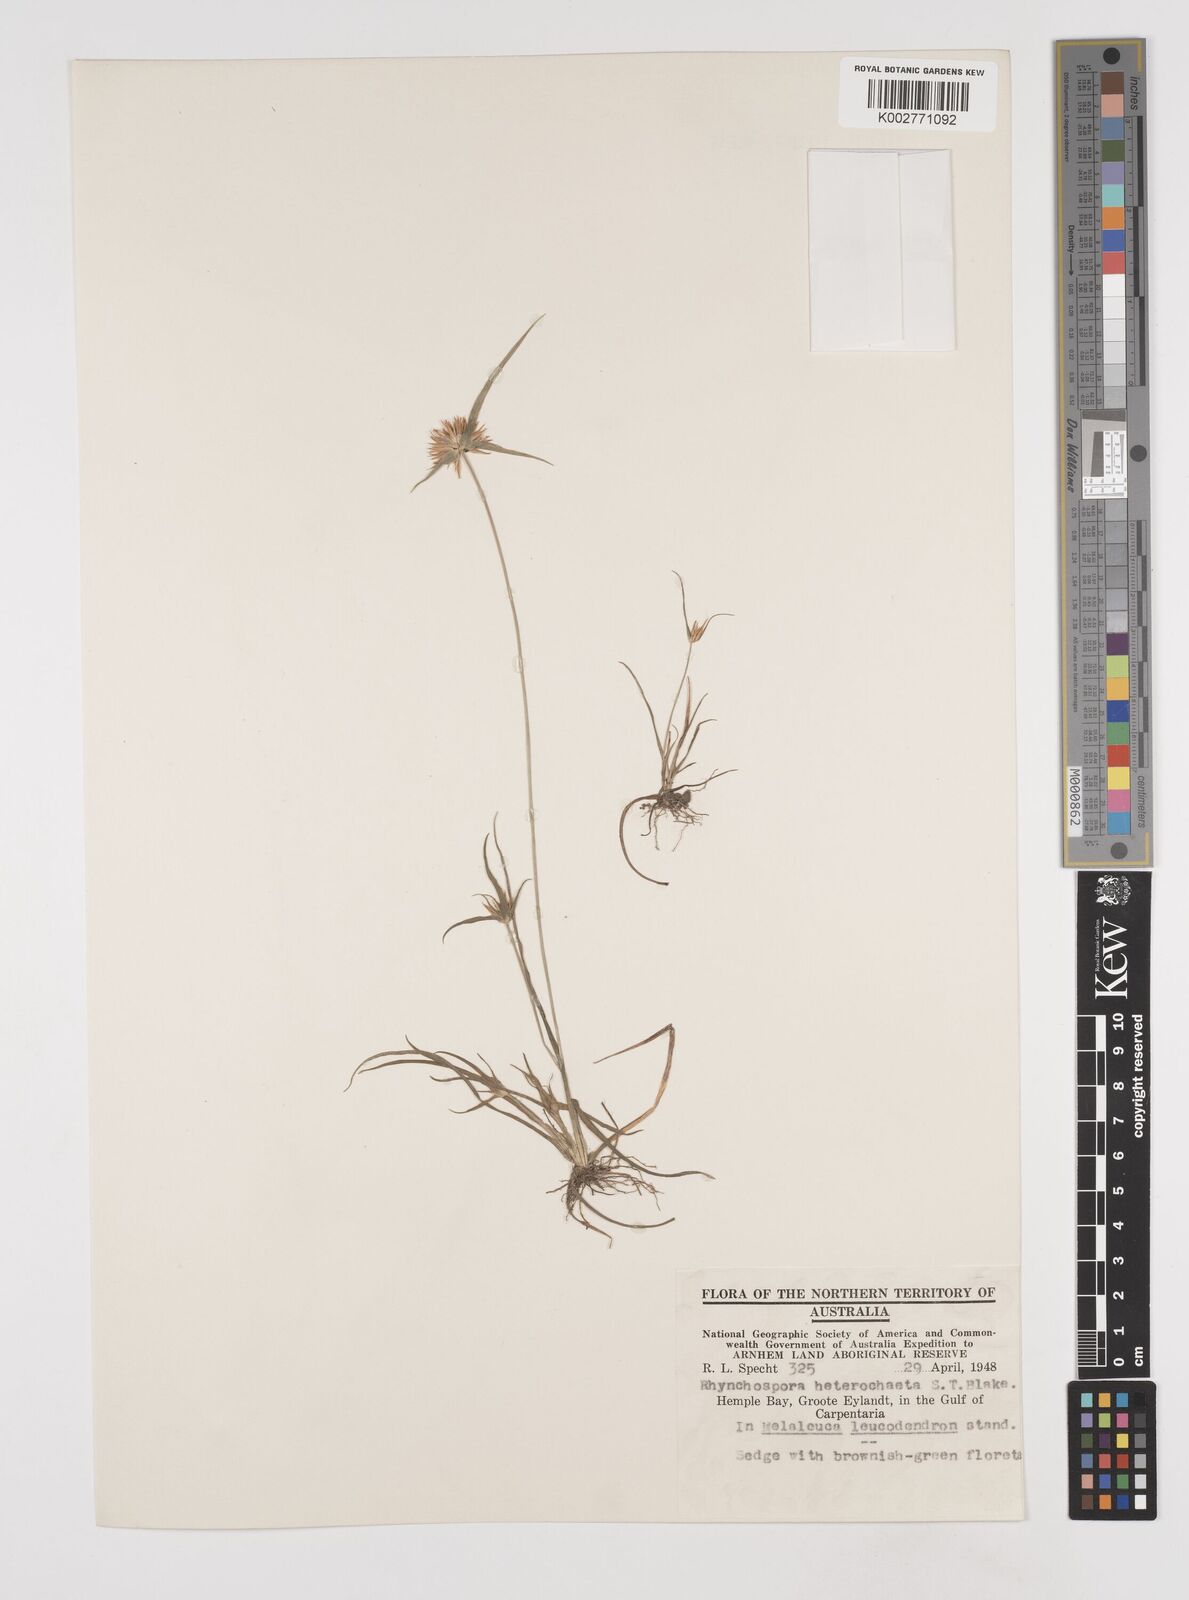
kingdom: Plantae
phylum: Tracheophyta
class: Liliopsida
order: Poales
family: Cyperaceae
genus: Rhynchospora
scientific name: Rhynchospora heterochaeta
